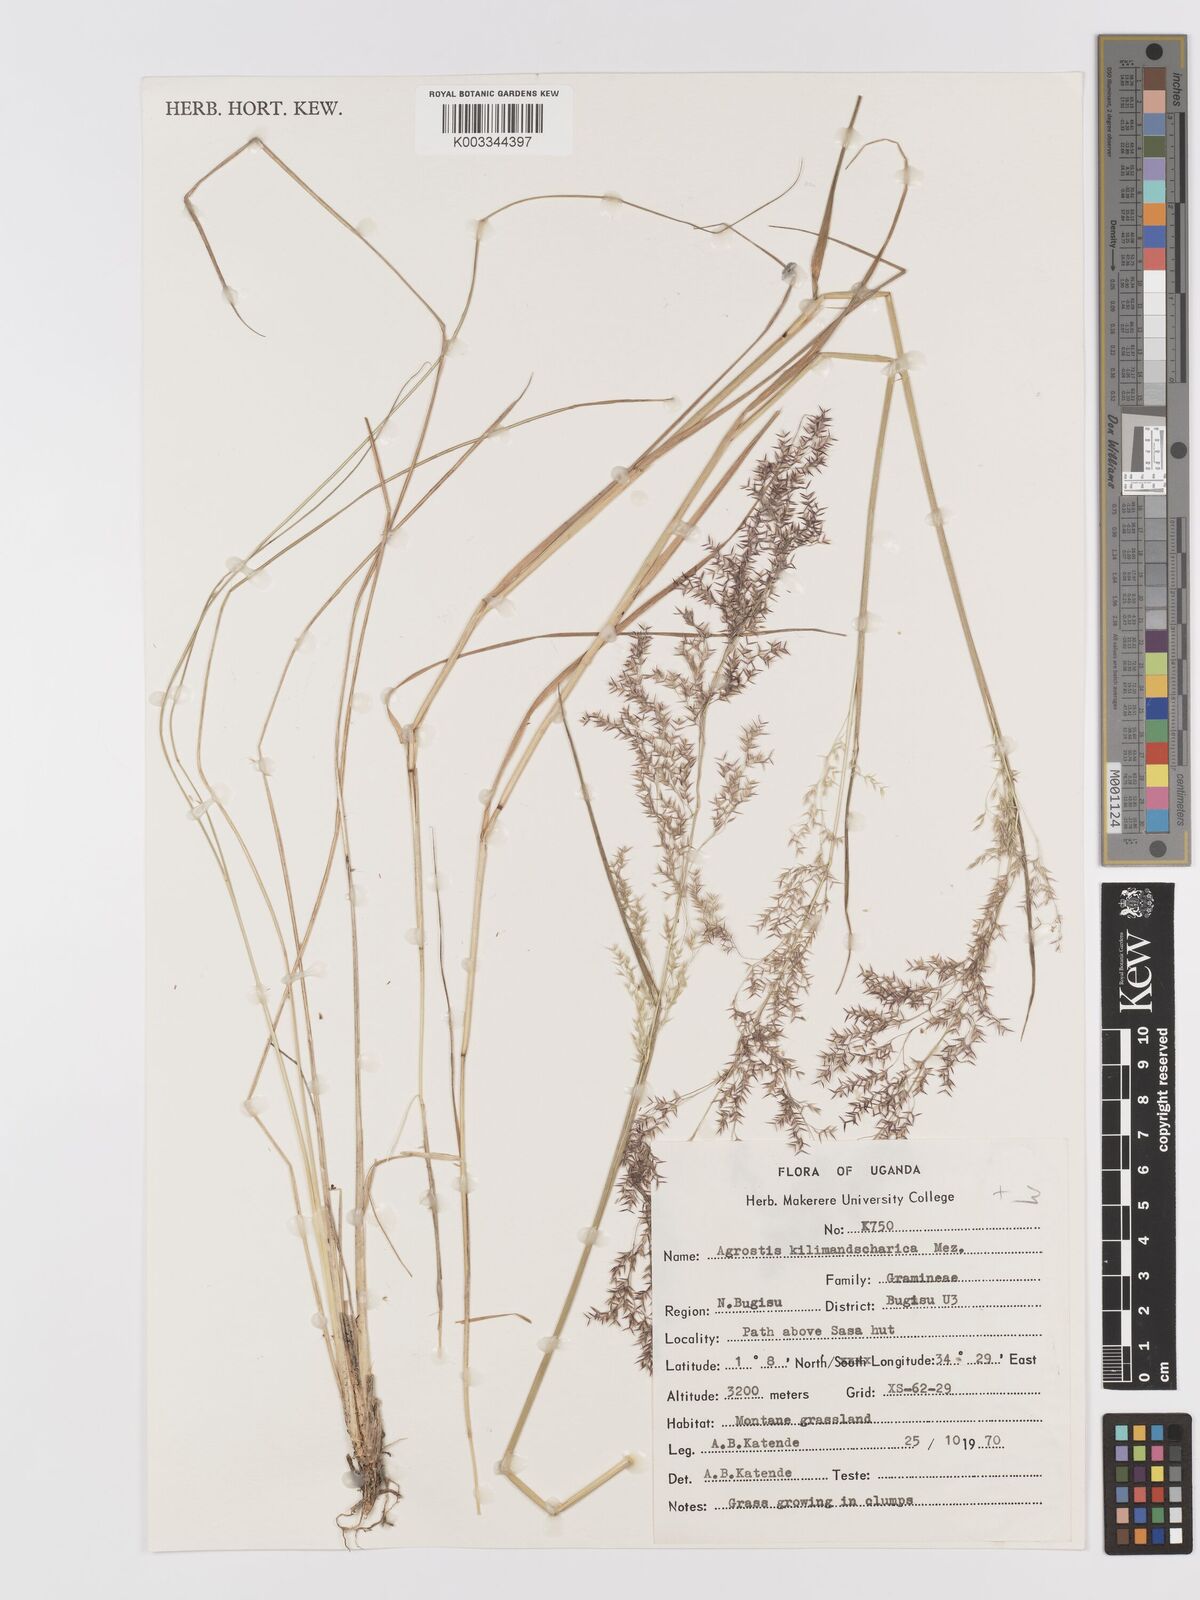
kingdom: Plantae
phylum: Tracheophyta
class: Liliopsida
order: Poales
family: Poaceae
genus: Agrostis
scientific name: Agrostis kilimandscharica
